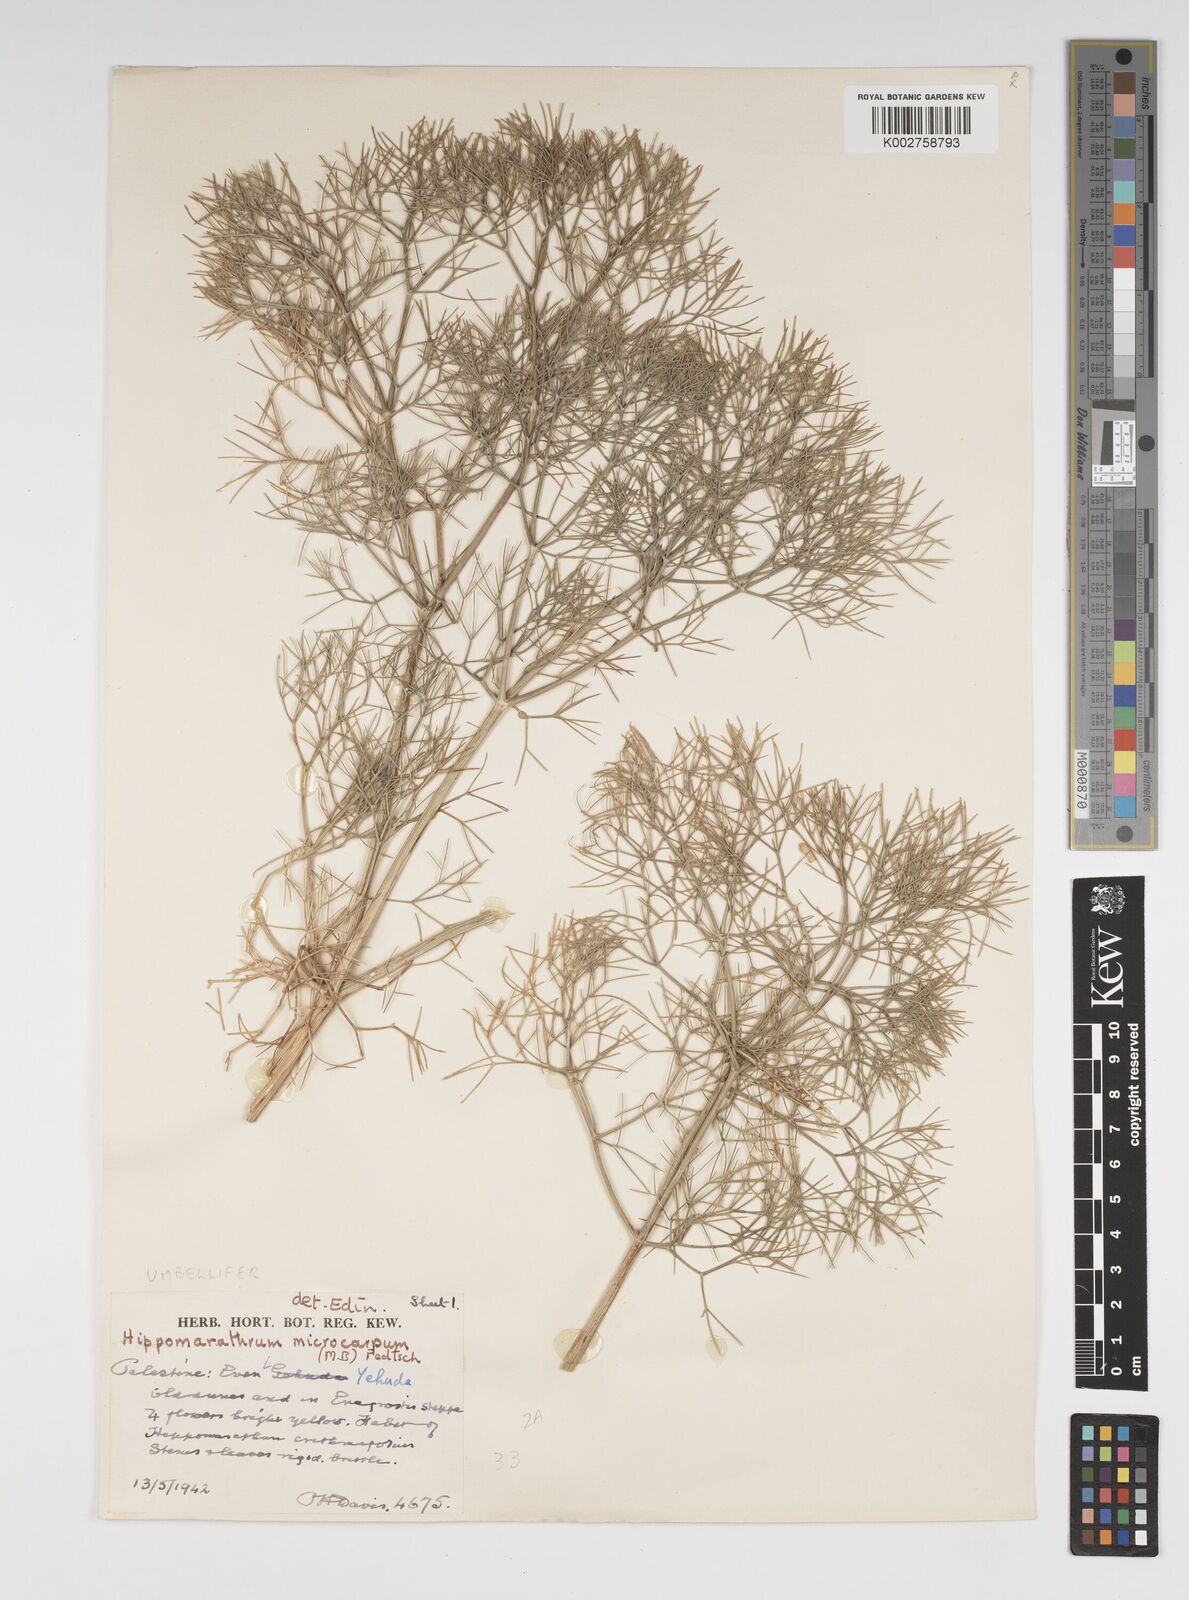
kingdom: Plantae
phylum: Tracheophyta
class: Magnoliopsida
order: Apiales
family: Apiaceae
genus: Bilacunaria
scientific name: Bilacunaria microcarpa
